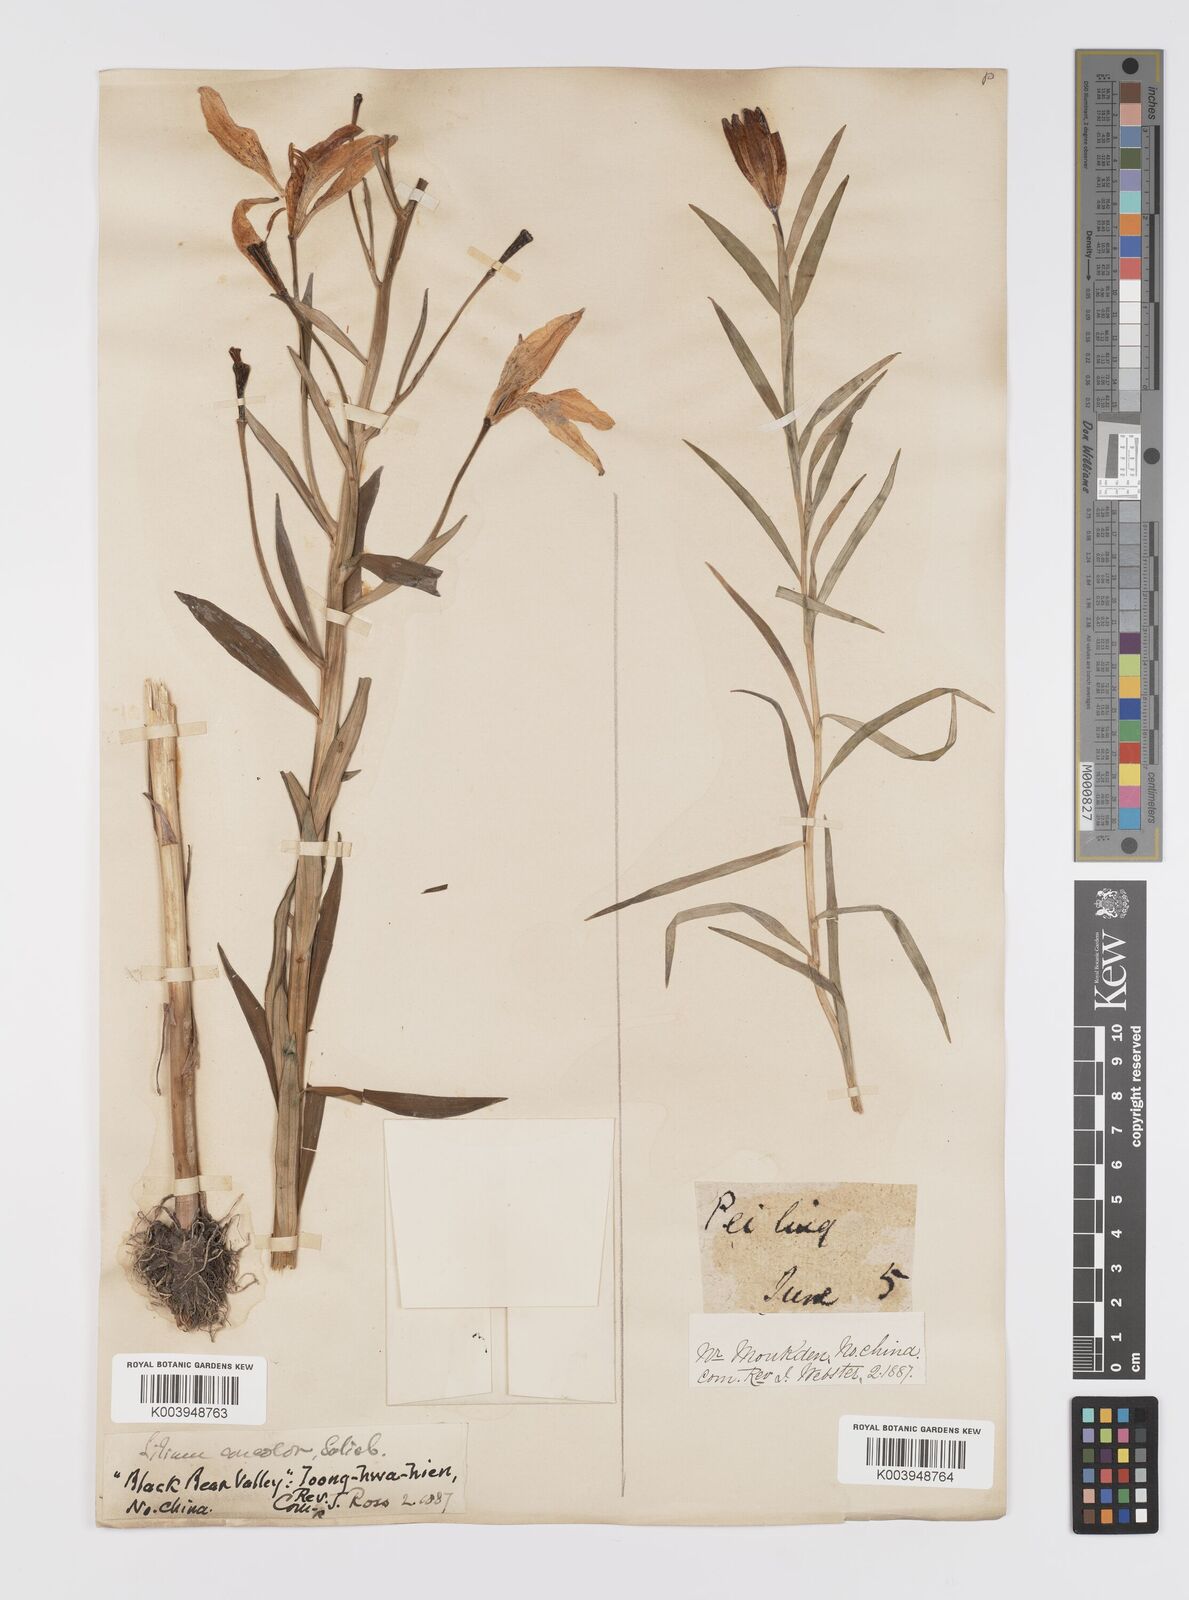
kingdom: Plantae
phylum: Tracheophyta
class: Liliopsida
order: Liliales
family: Liliaceae
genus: Lilium
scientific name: Lilium concolor
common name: Morning-star lily
